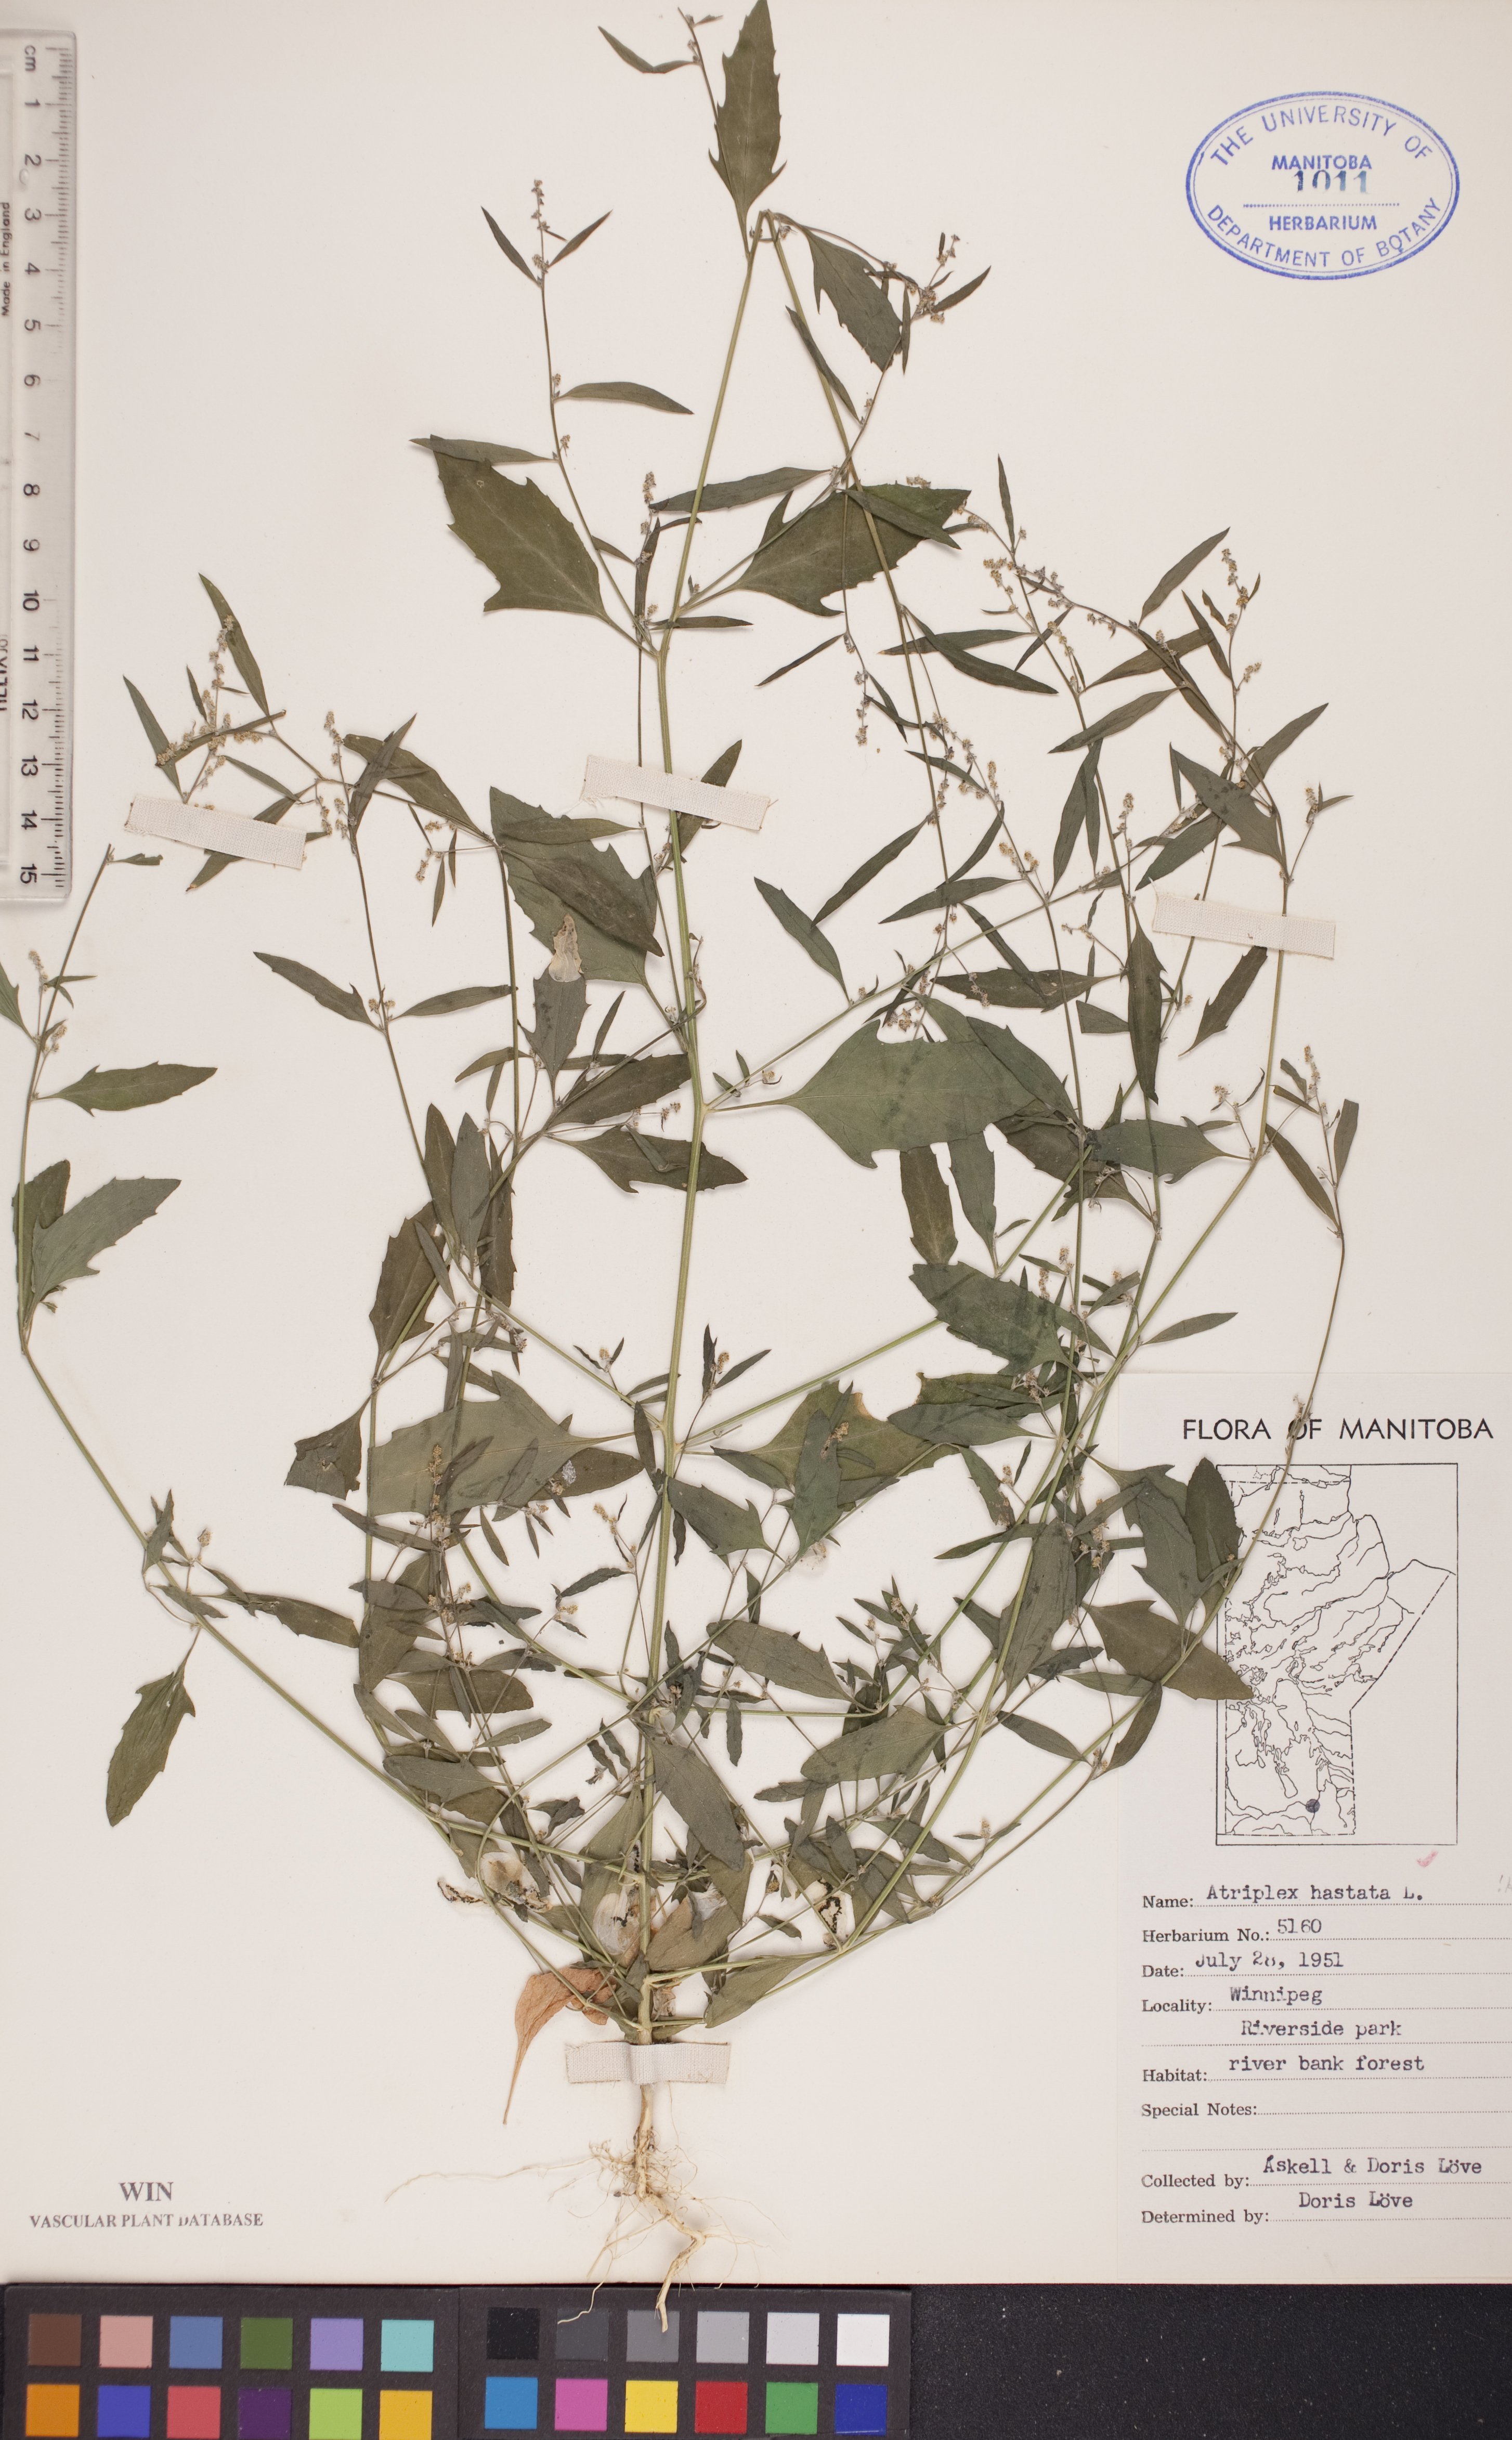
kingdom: Plantae
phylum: Tracheophyta
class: Magnoliopsida
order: Caryophyllales
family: Amaranthaceae
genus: Atriplex
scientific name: Atriplex
